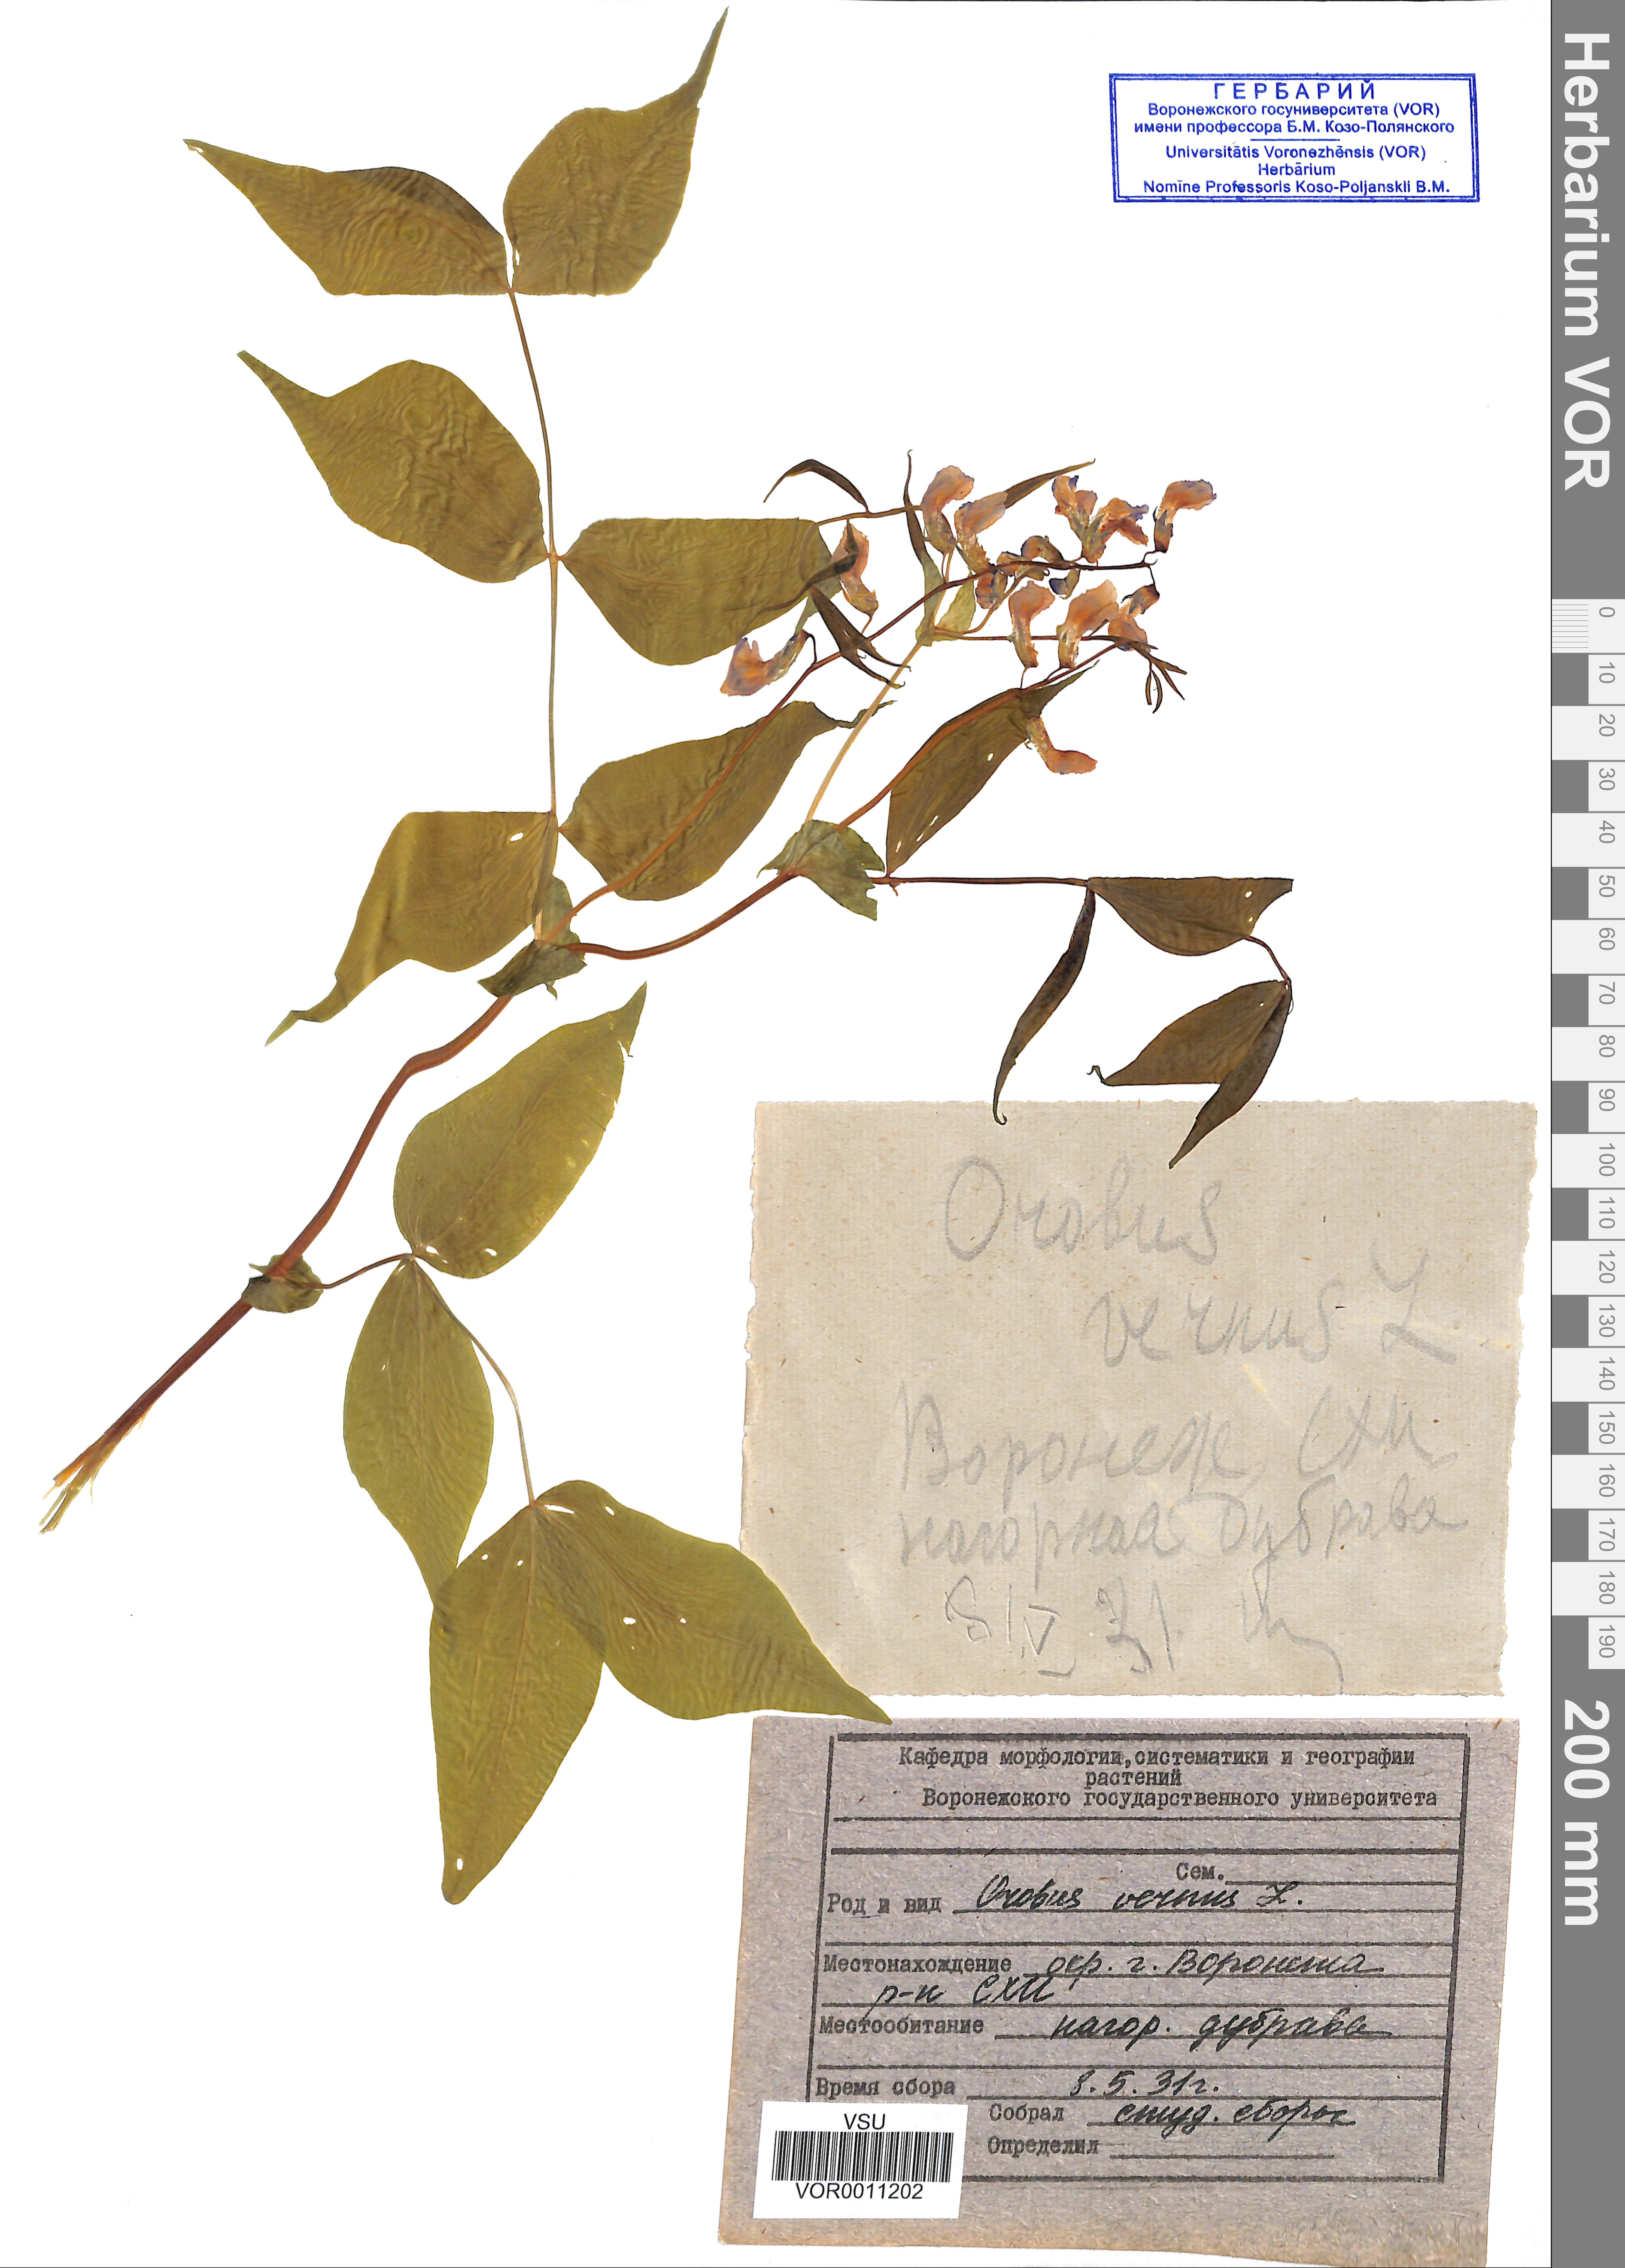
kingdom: Plantae
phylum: Tracheophyta
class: Magnoliopsida
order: Fabales
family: Fabaceae
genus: Lathyrus
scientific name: Lathyrus vernus
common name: Spring pea
